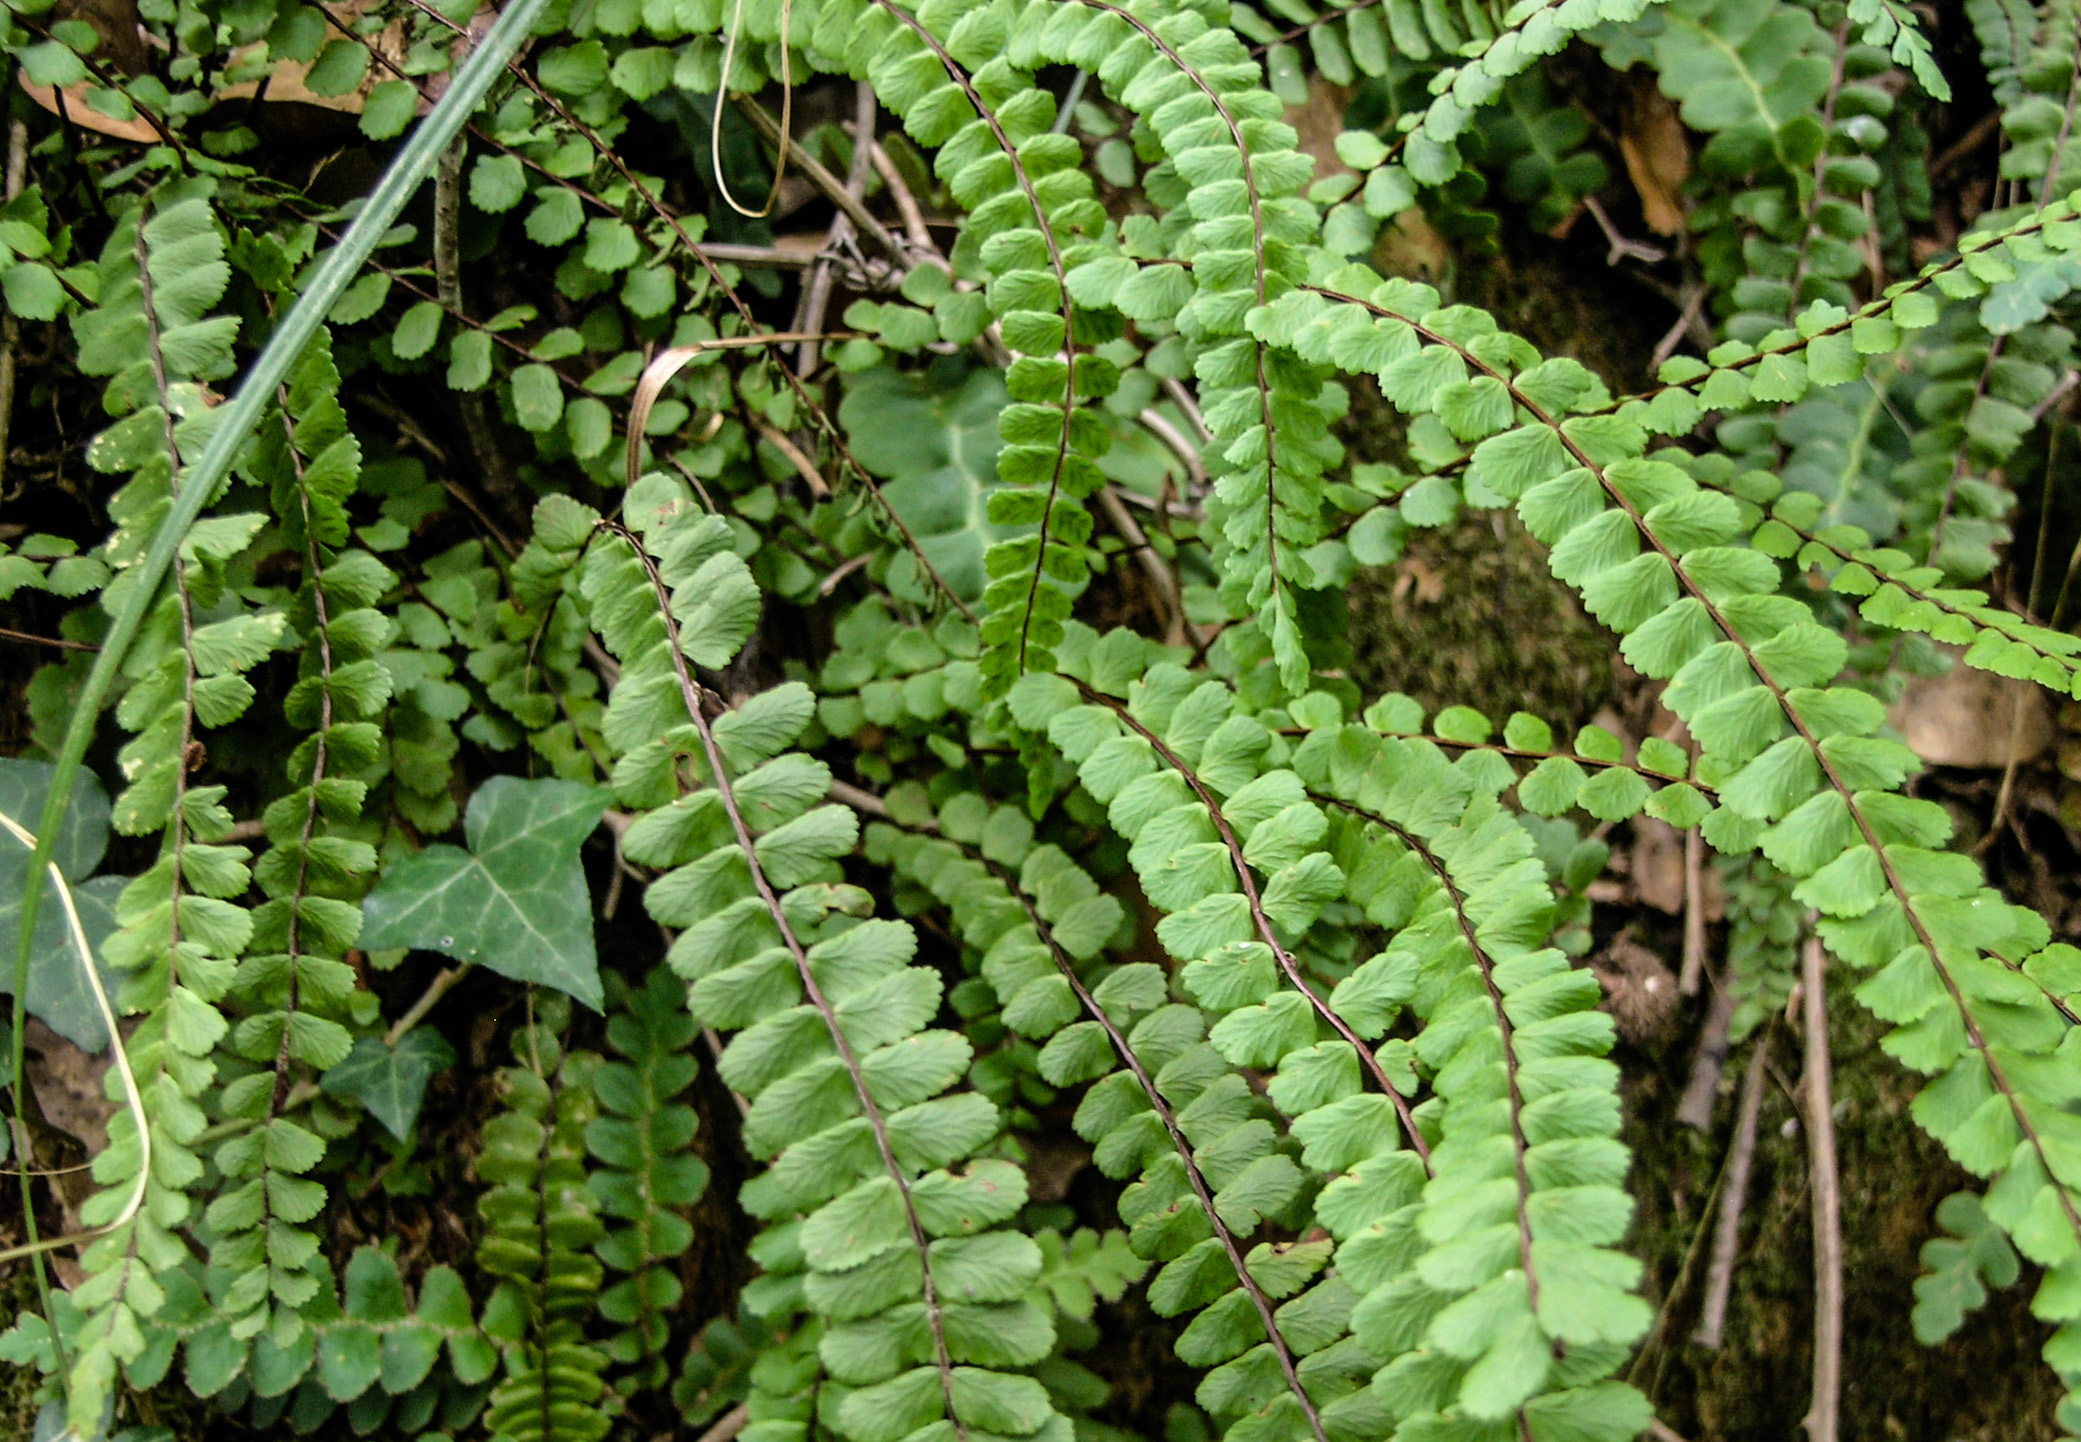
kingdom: Plantae
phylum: Tracheophyta
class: Polypodiopsida
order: Polypodiales
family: Aspleniaceae
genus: Asplenium
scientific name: Asplenium quadrivalens
